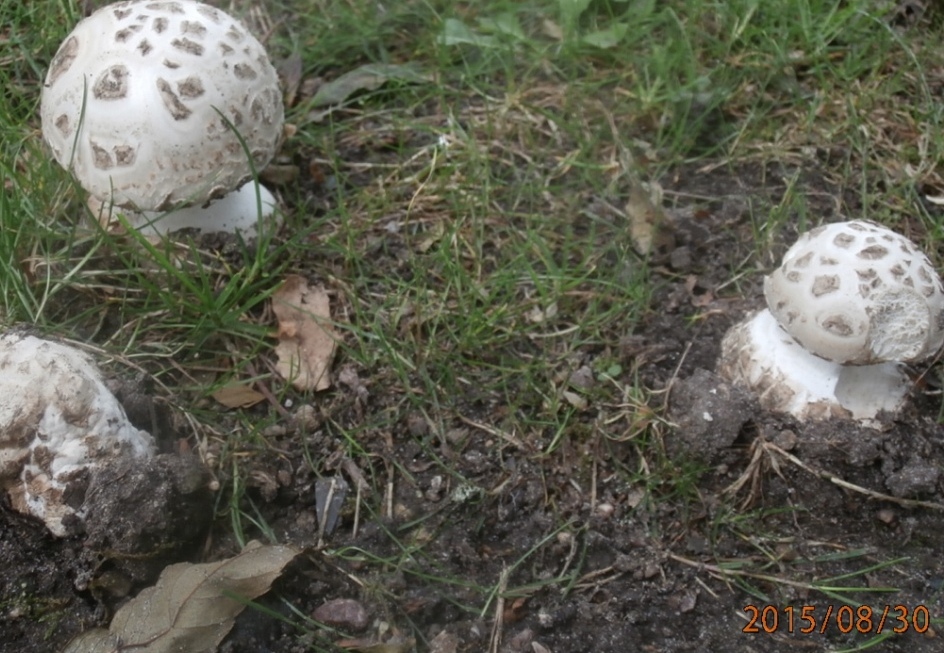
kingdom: Fungi
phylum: Basidiomycota
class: Agaricomycetes
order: Agaricales
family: Amanitaceae
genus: Amanita
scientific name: Amanita
